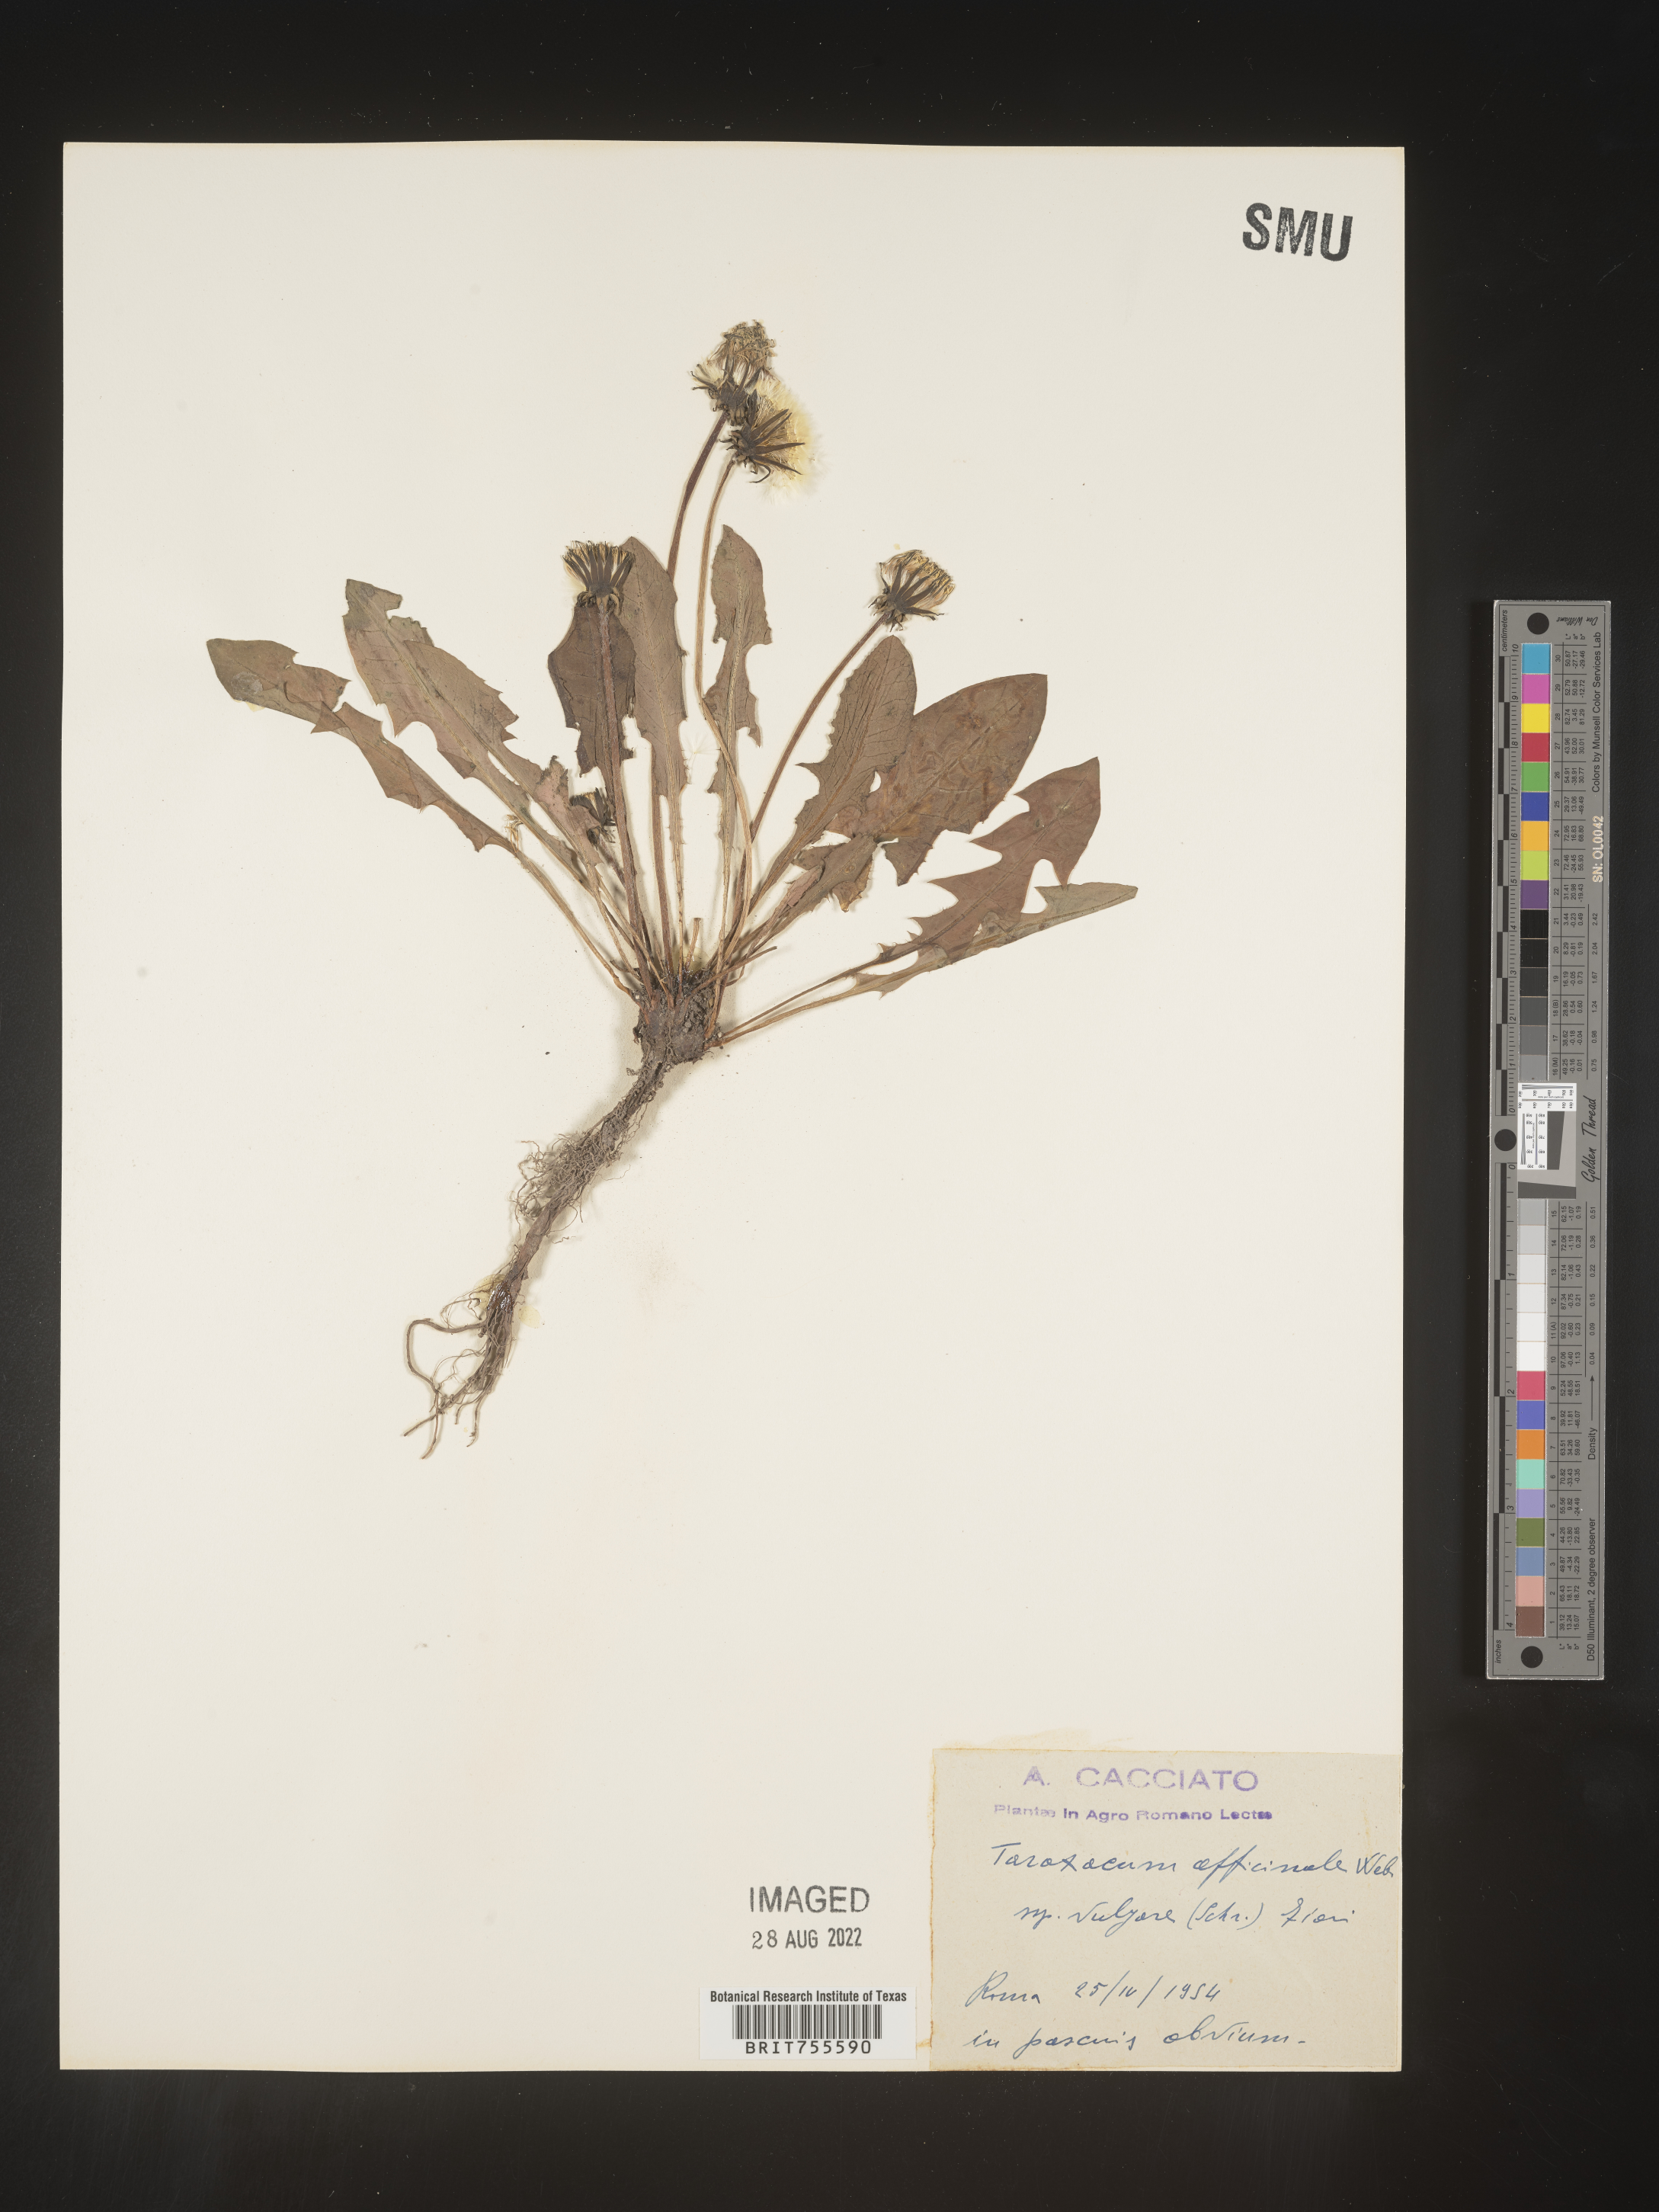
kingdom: Plantae
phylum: Tracheophyta
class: Magnoliopsida
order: Asterales
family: Asteraceae
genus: Taraxacum
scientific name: Taraxacum
